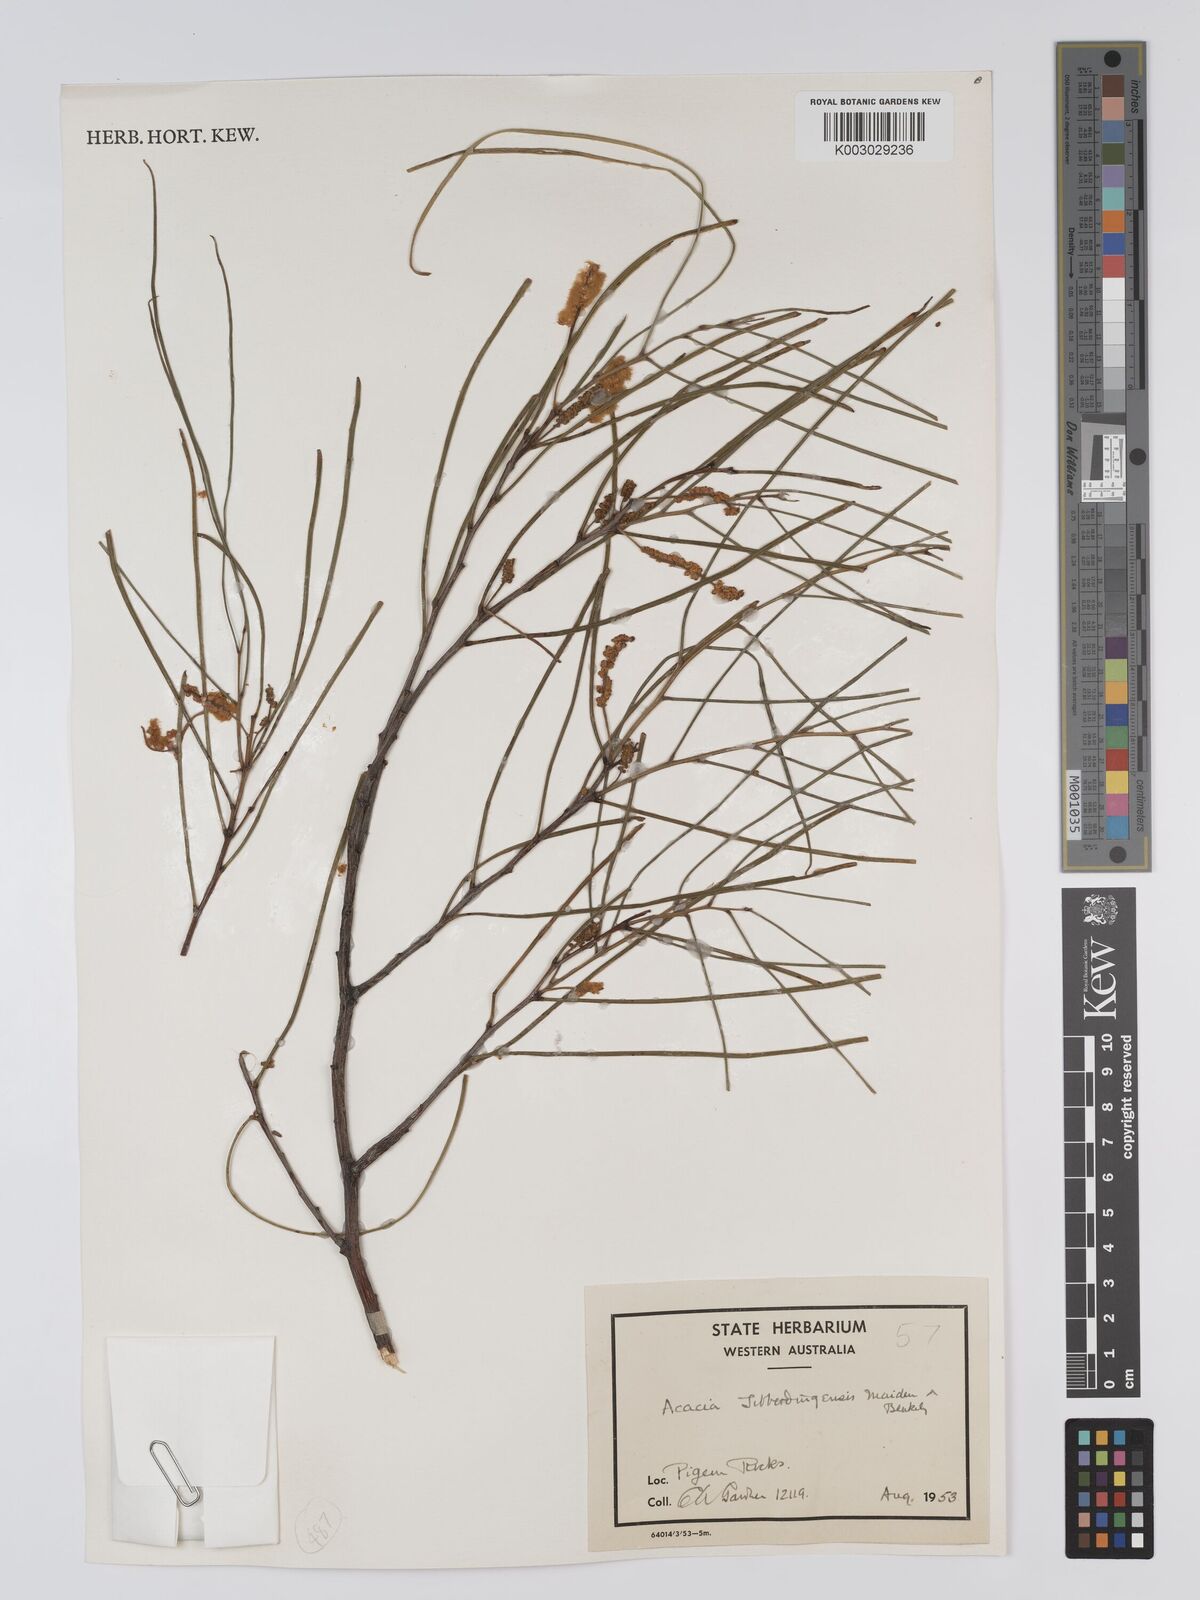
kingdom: Plantae
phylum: Tracheophyta
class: Magnoliopsida
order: Fabales
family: Fabaceae
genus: Acacia
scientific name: Acacia jibberdingensis
